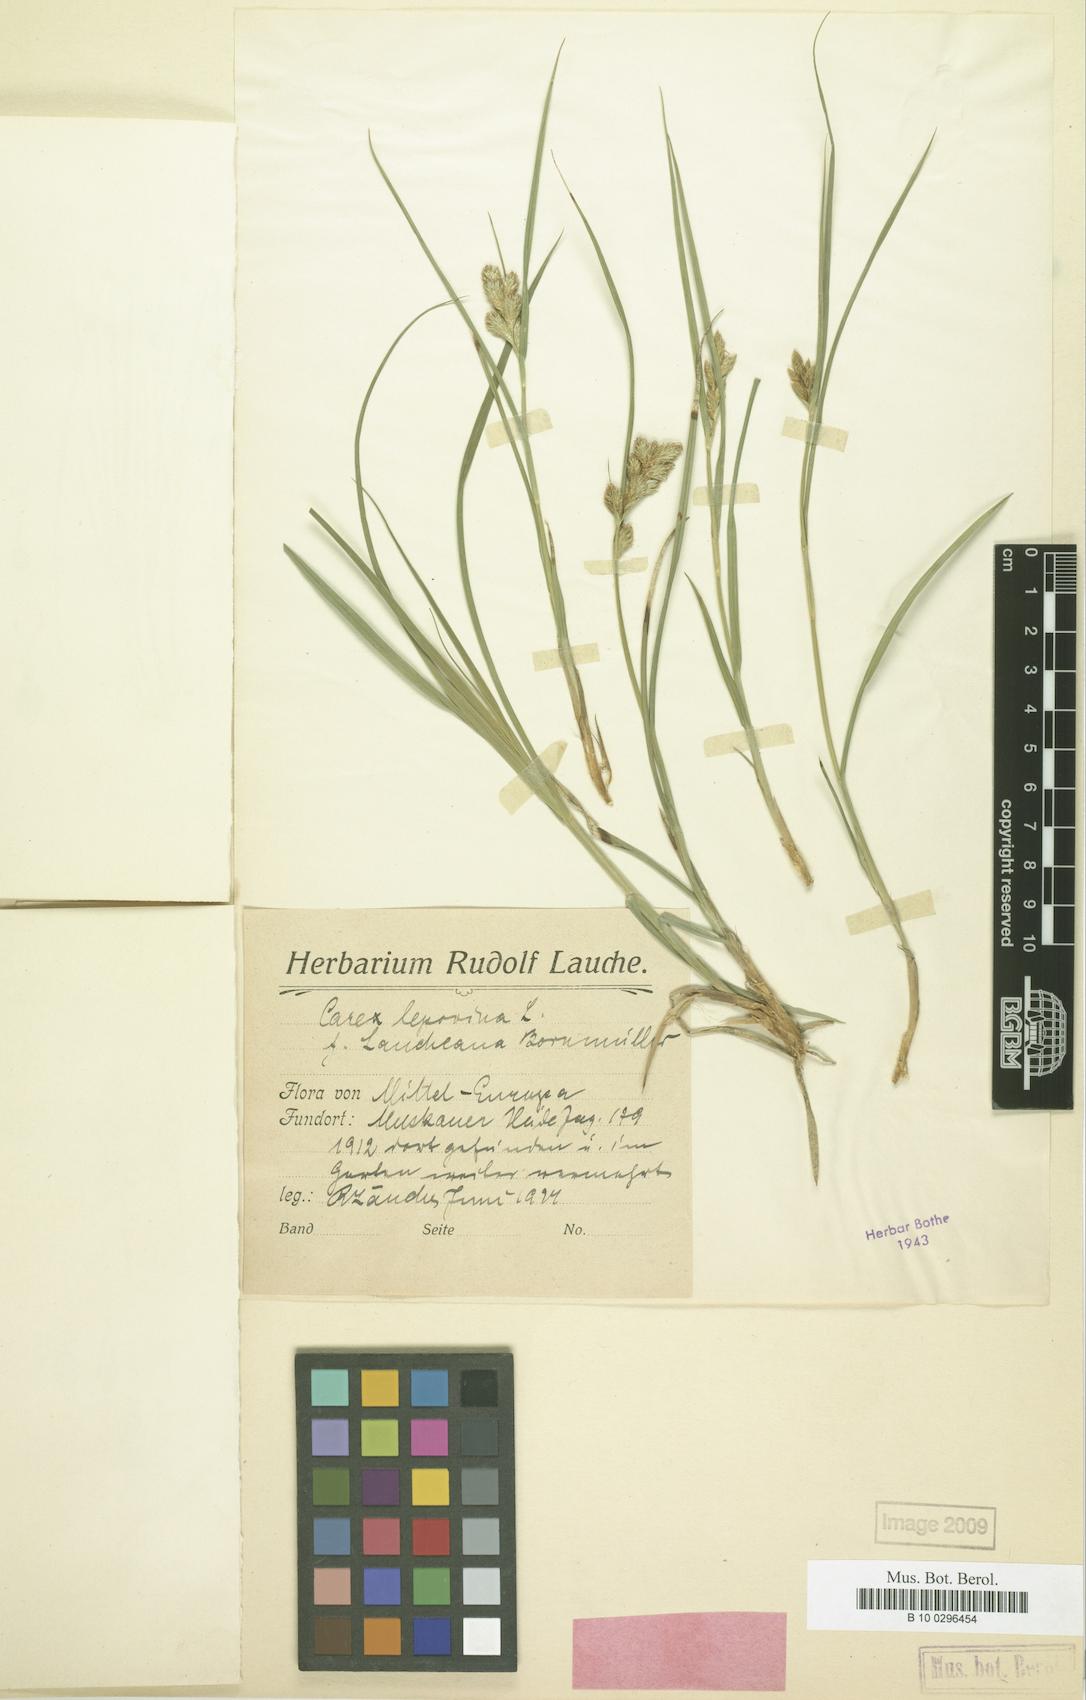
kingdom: Plantae
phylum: Tracheophyta
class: Liliopsida
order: Poales
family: Cyperaceae
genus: Carex
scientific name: Carex leporina
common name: Oval sedge
